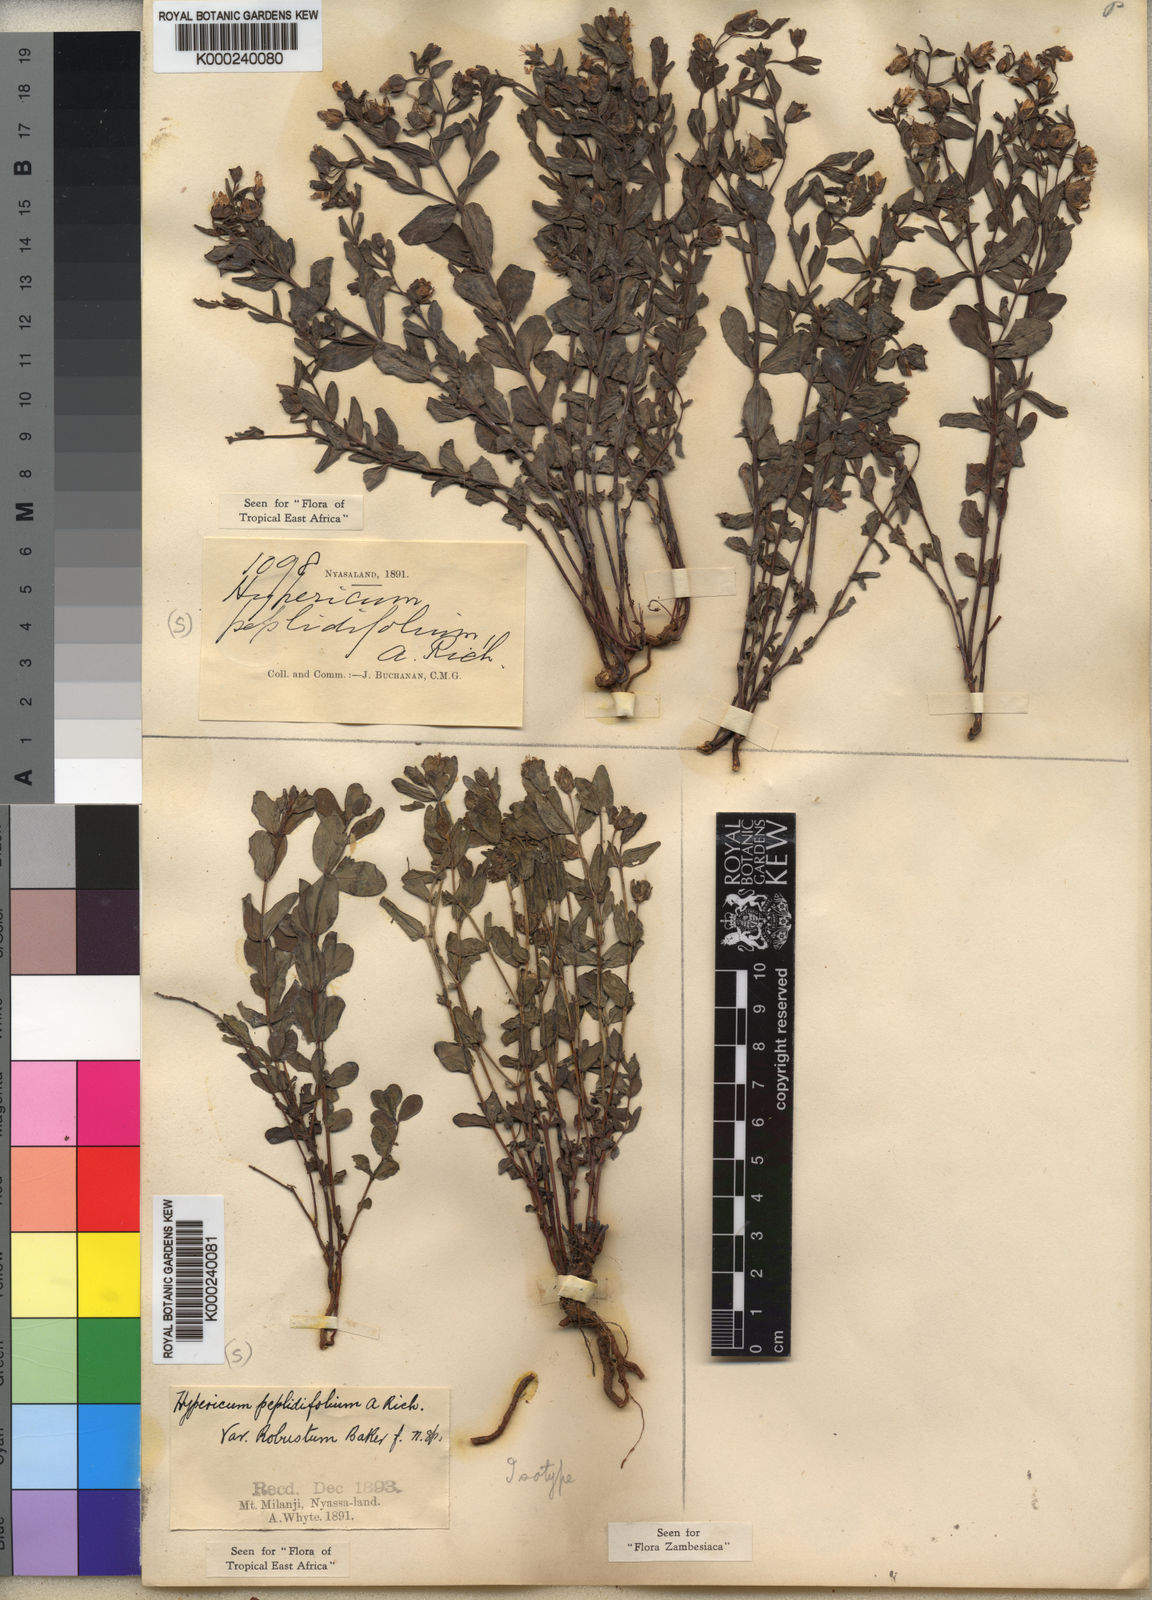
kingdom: Plantae
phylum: Tracheophyta
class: Magnoliopsida
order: Malpighiales
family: Hypericaceae
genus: Hypericum
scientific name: Hypericum peplidifolium
